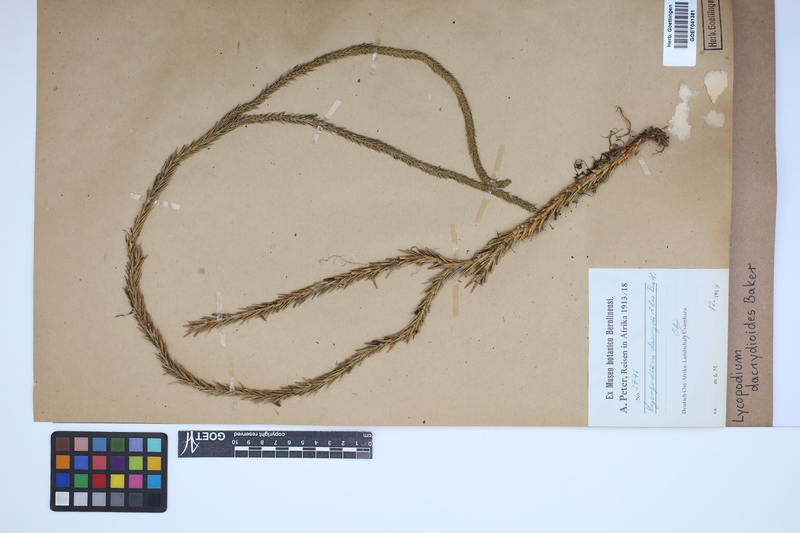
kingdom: Plantae
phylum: Tracheophyta
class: Lycopodiopsida
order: Lycopodiales
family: Lycopodiaceae
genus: Phlegmariurus
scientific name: Phlegmariurus dacrydioides
